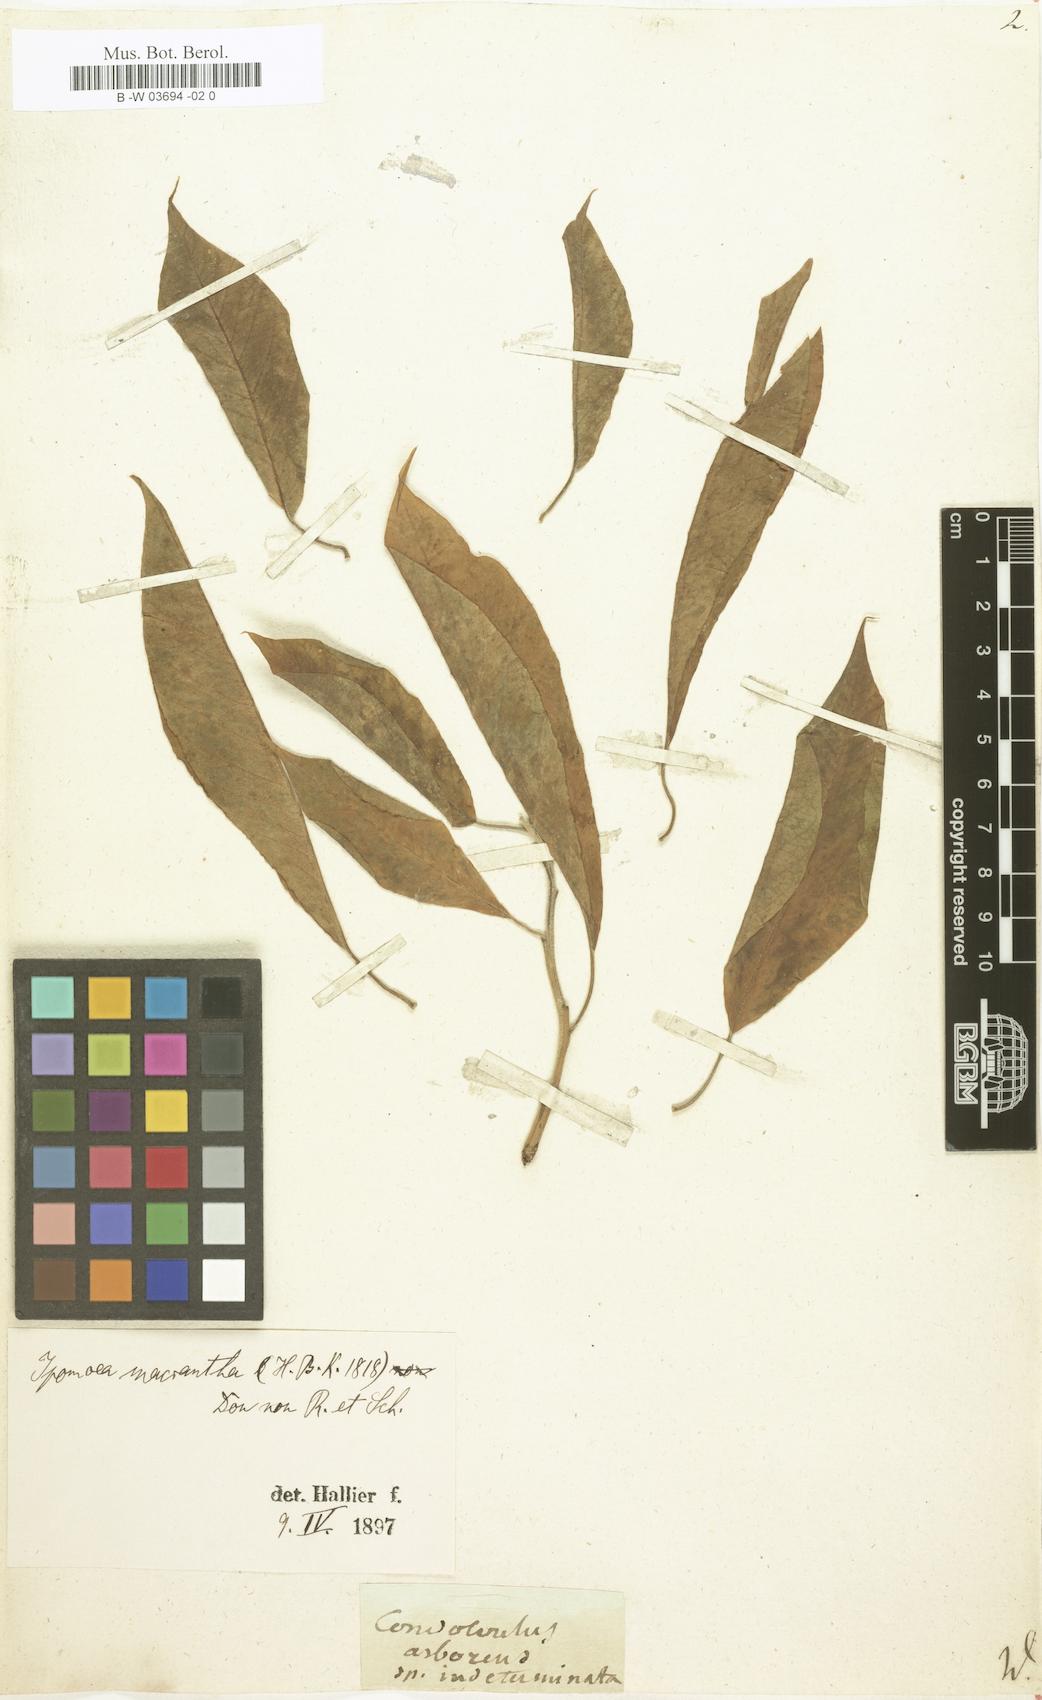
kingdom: Plantae
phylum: Tracheophyta
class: Magnoliopsida
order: Solanales
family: Convolvulaceae
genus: Convolvulus
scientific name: Convolvulus
